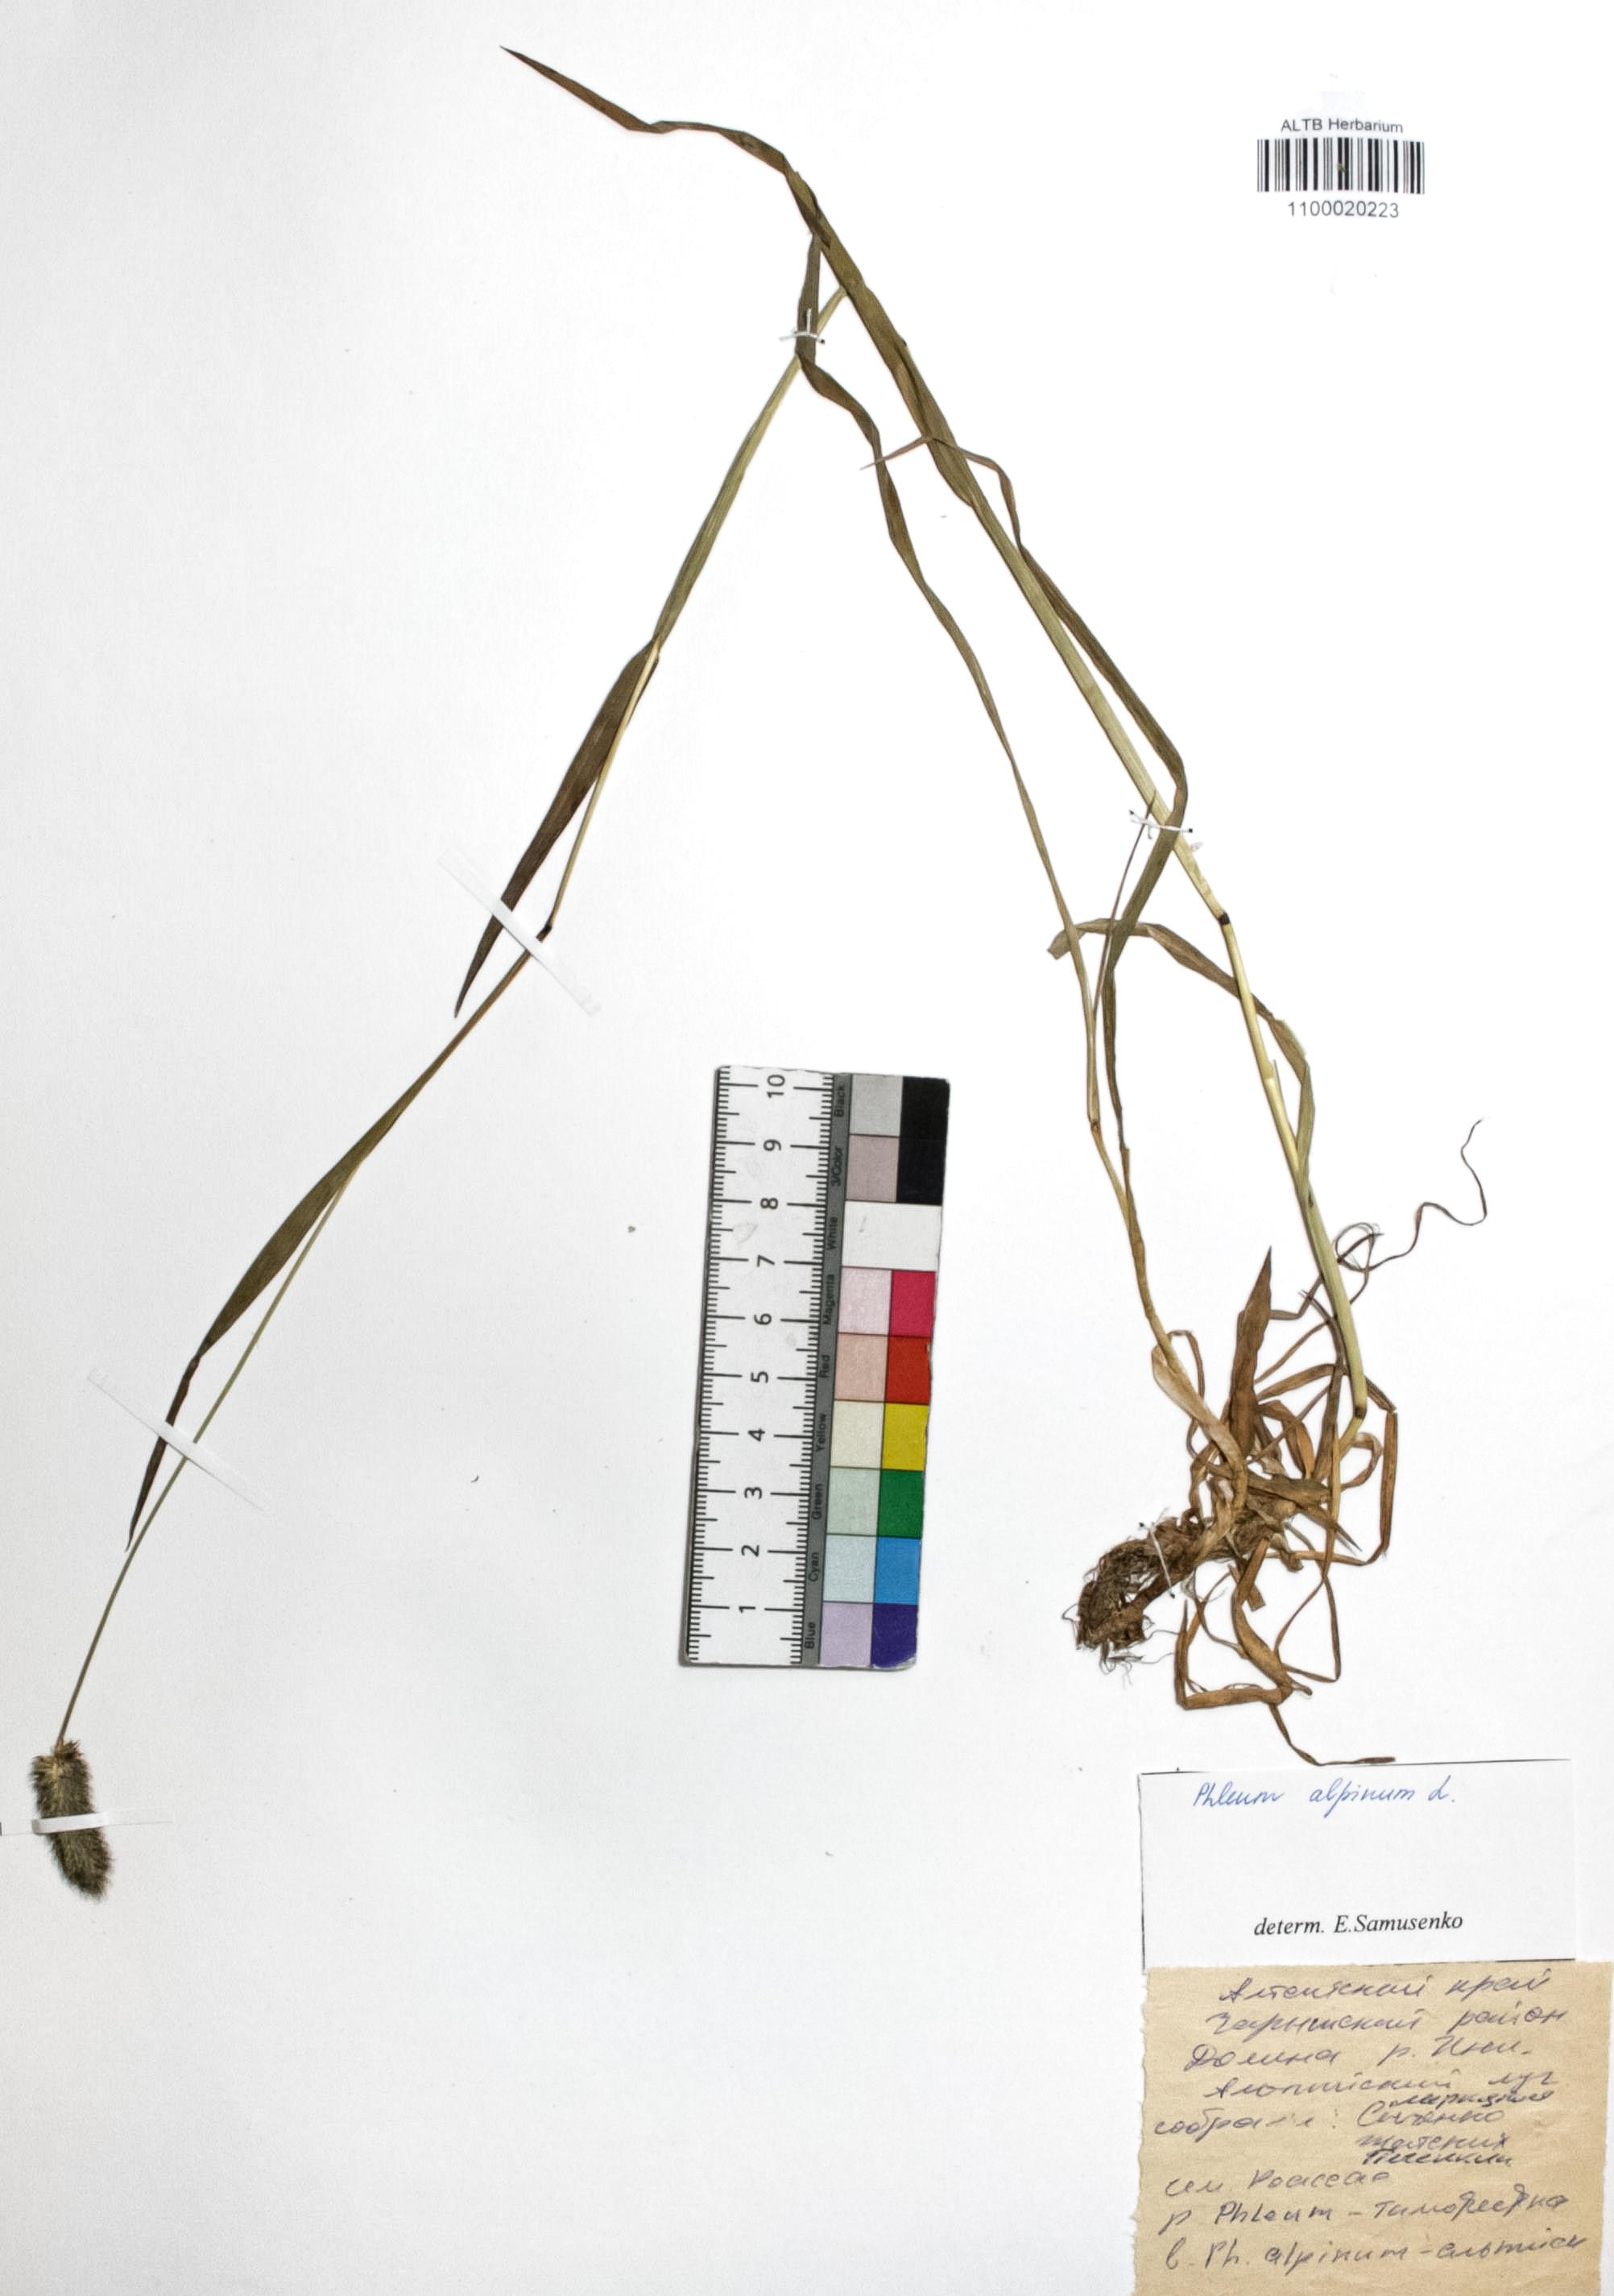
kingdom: Plantae
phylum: Tracheophyta
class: Liliopsida
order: Poales
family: Poaceae
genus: Phleum
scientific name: Phleum alpinum
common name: Alpine cat's-tail
